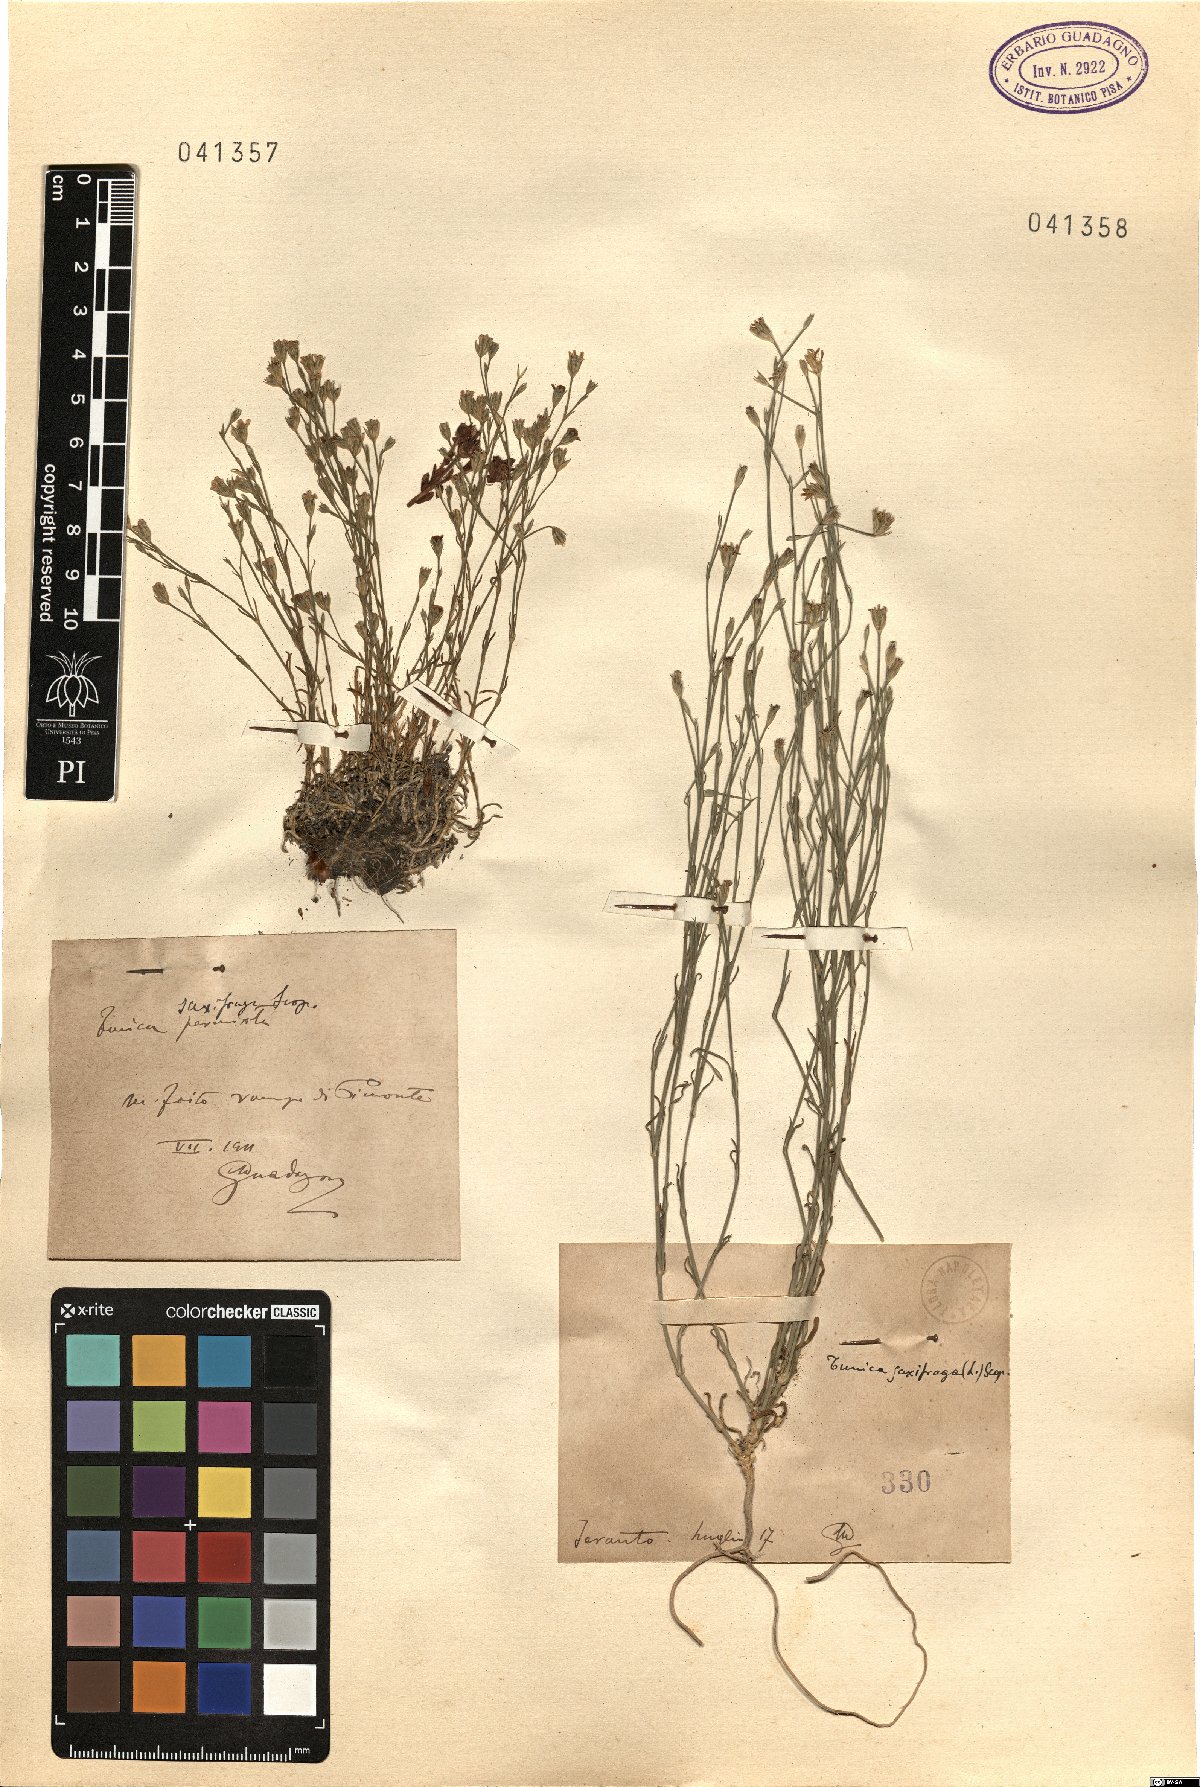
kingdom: Plantae
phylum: Tracheophyta
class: Magnoliopsida
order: Caryophyllales
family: Caryophyllaceae
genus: Petrorhagia
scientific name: Petrorhagia saxifraga
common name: Tunicflower
